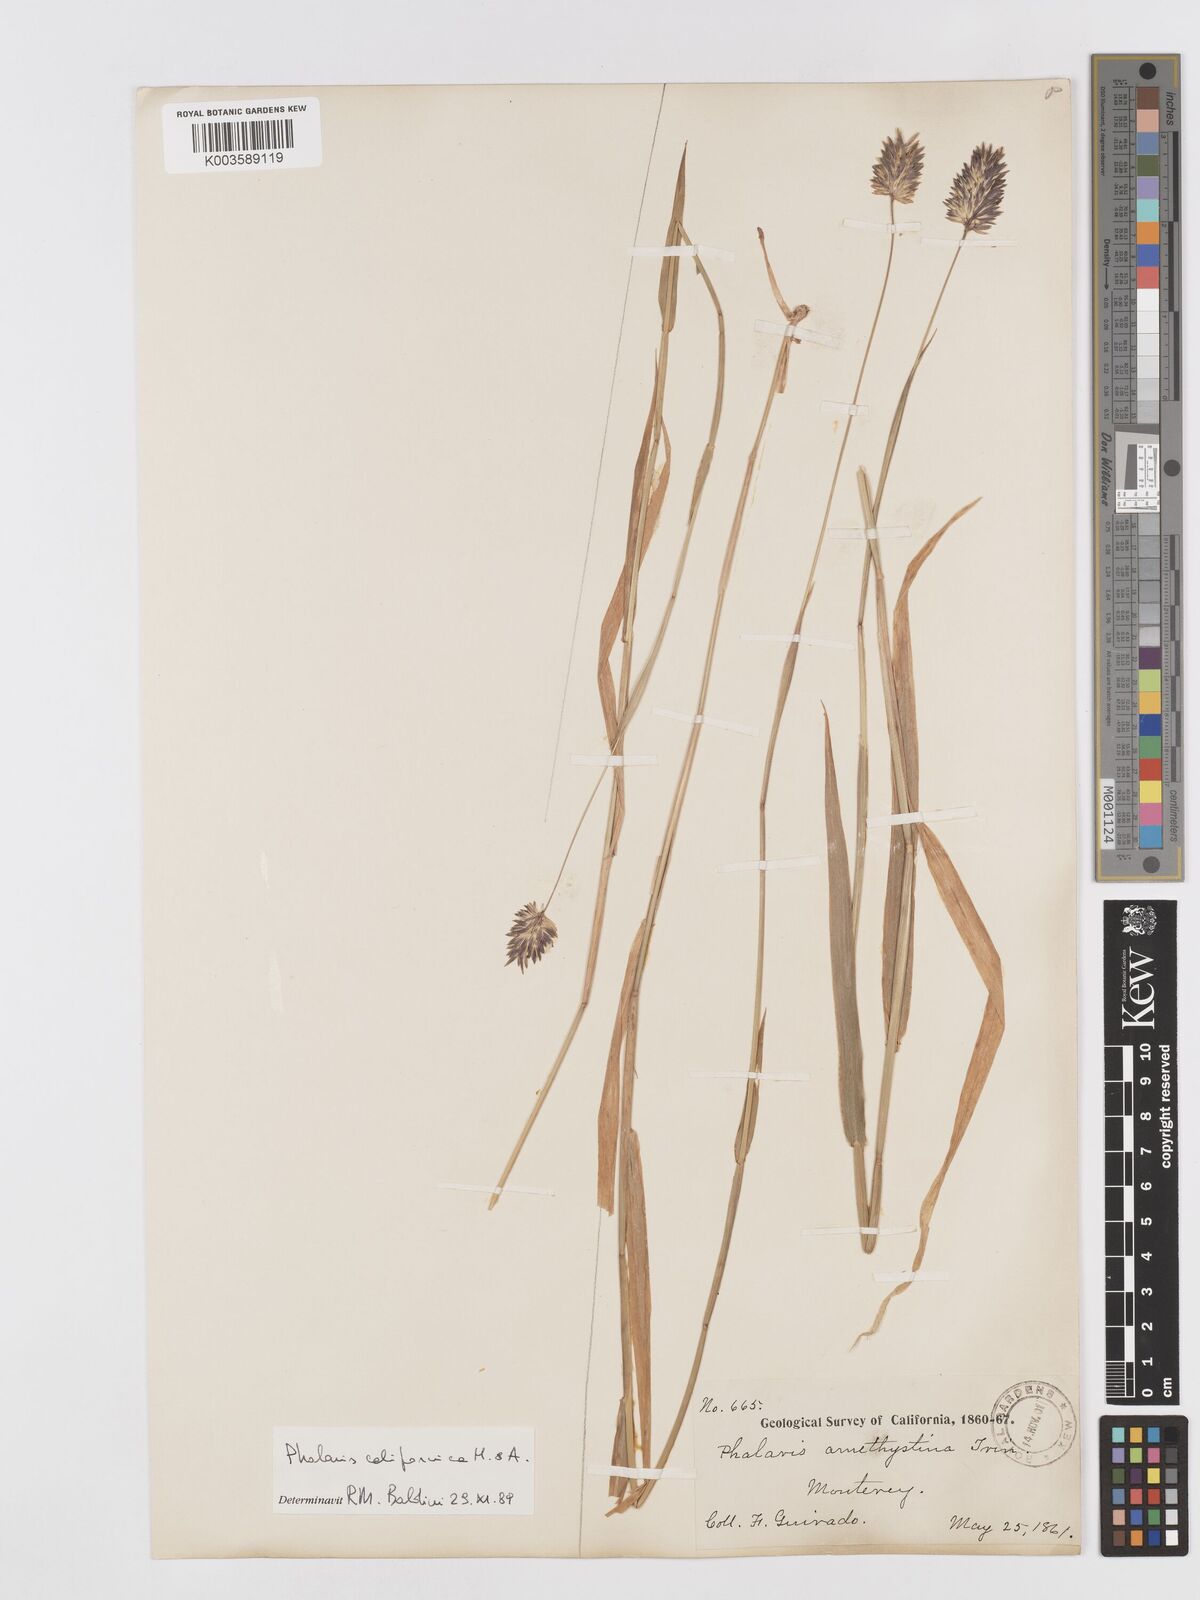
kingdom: Plantae
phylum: Tracheophyta
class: Liliopsida
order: Poales
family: Poaceae
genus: Phalaris
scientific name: Phalaris californica
